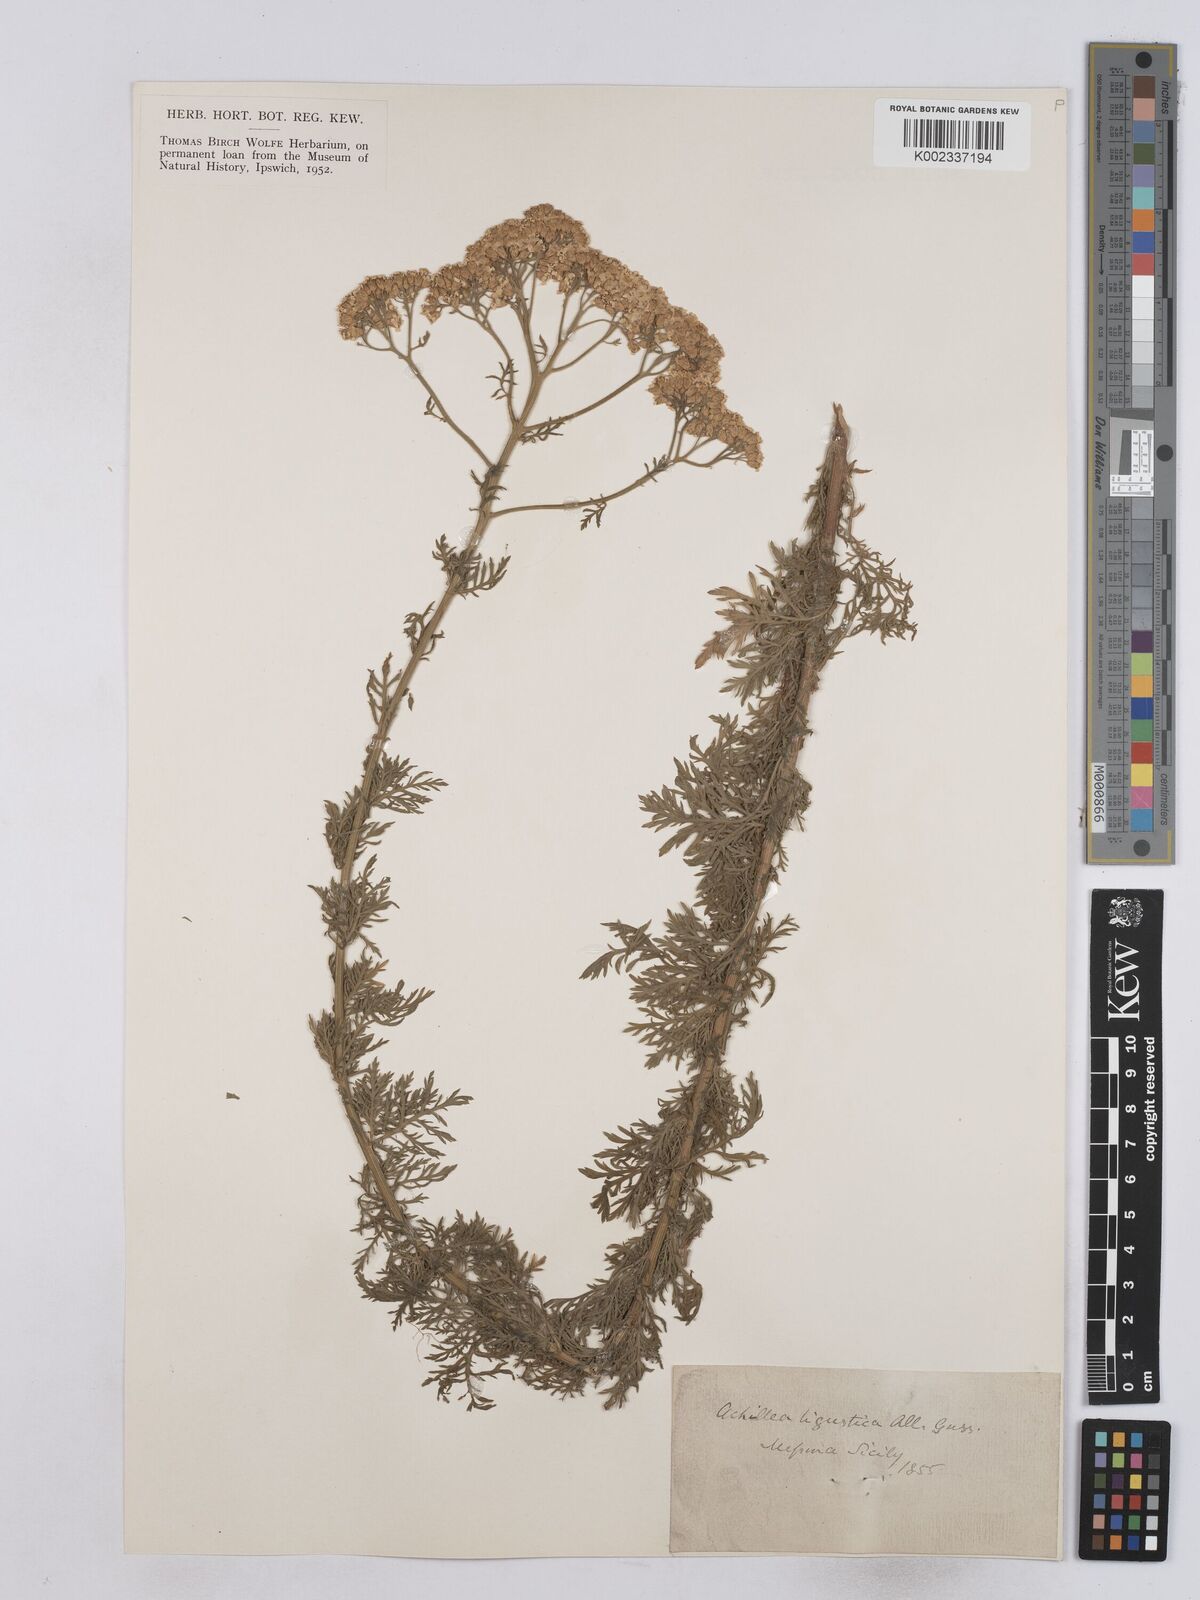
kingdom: Plantae
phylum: Tracheophyta
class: Magnoliopsida
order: Asterales
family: Asteraceae
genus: Achillea
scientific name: Achillea ligustica
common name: Southern yarrow
